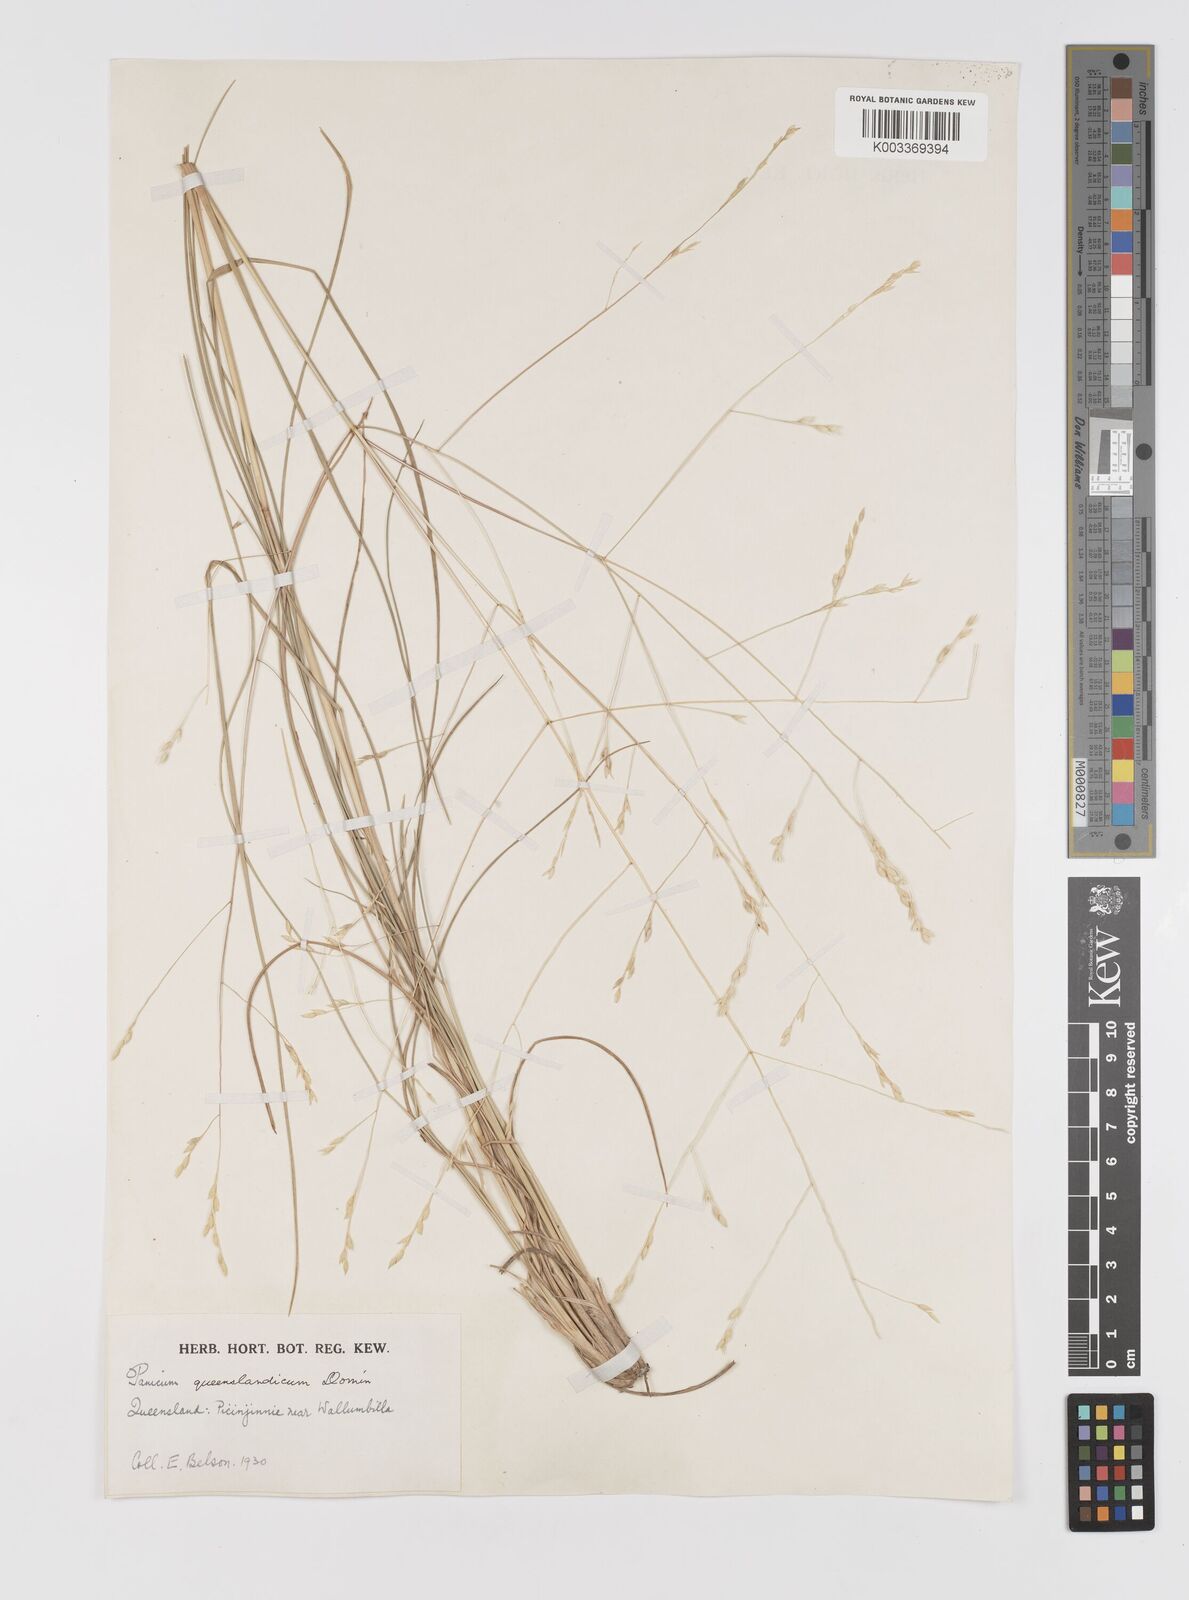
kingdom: Plantae
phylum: Tracheophyta
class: Liliopsida
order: Poales
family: Poaceae
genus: Panicum
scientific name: Panicum queenslandicum
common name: Yabila grass
